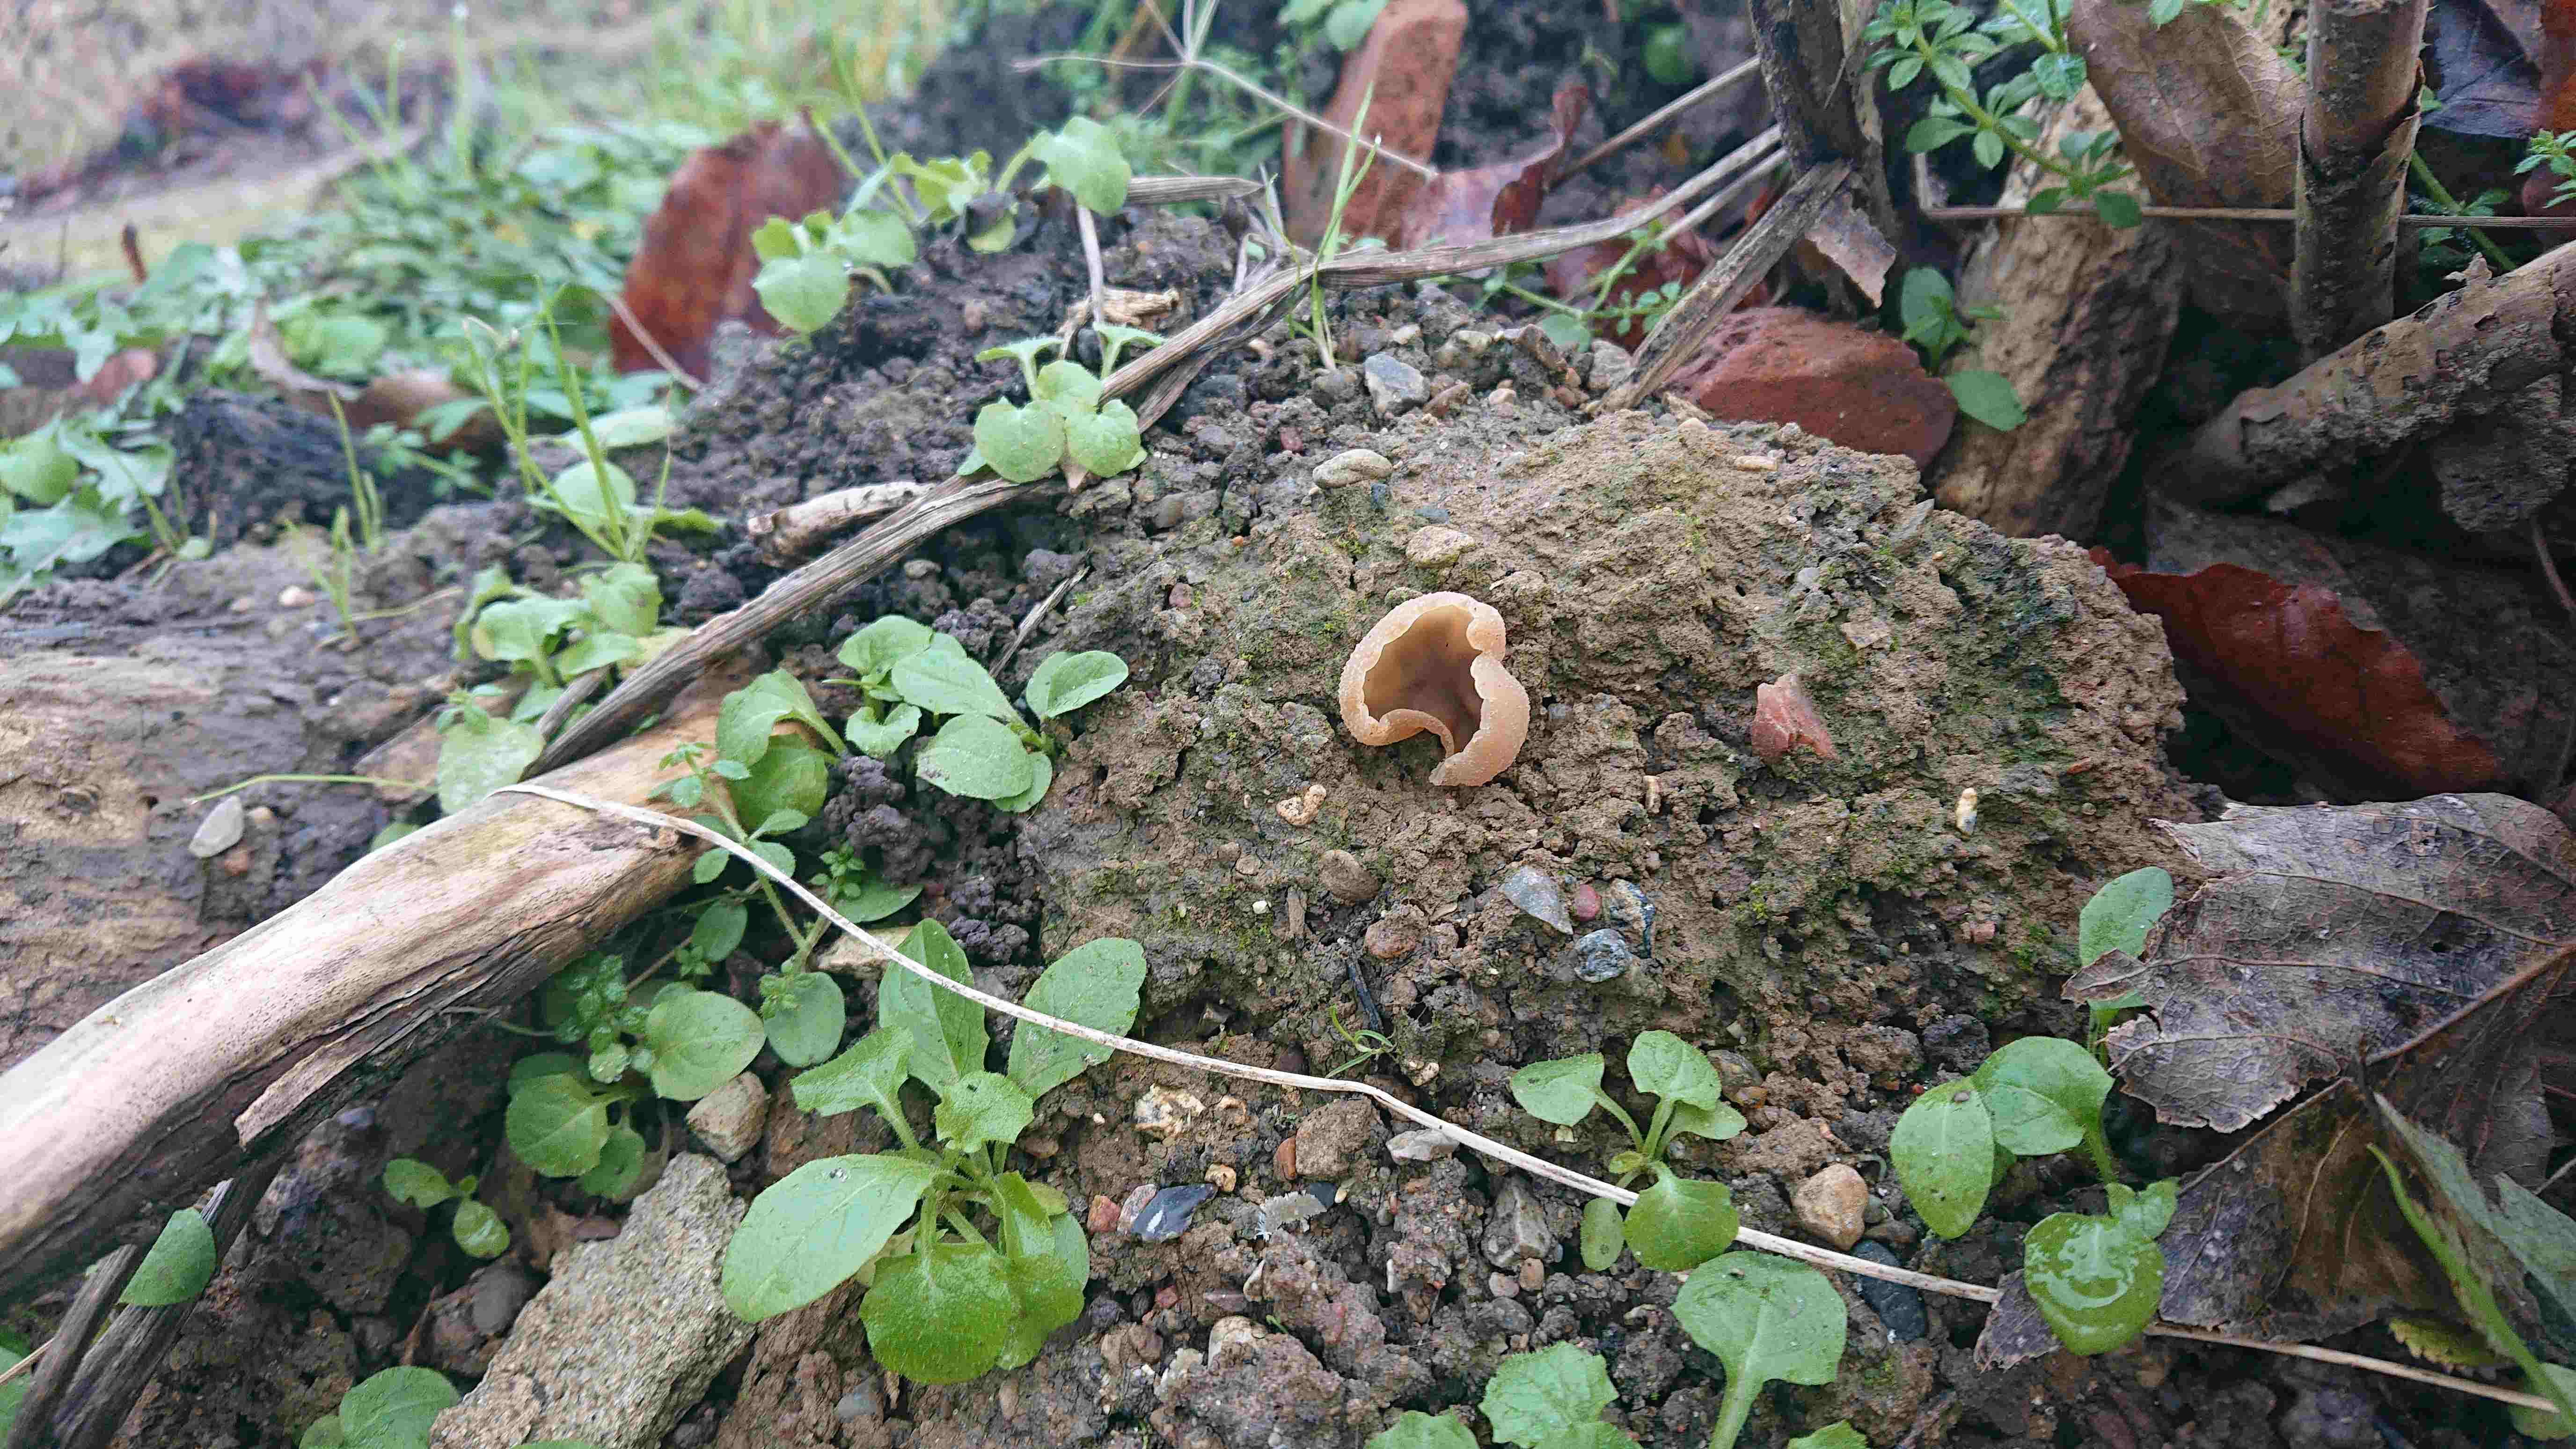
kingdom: Fungi
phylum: Ascomycota
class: Pezizomycetes
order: Pezizales
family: Pezizaceae
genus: Peziza
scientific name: Peziza
